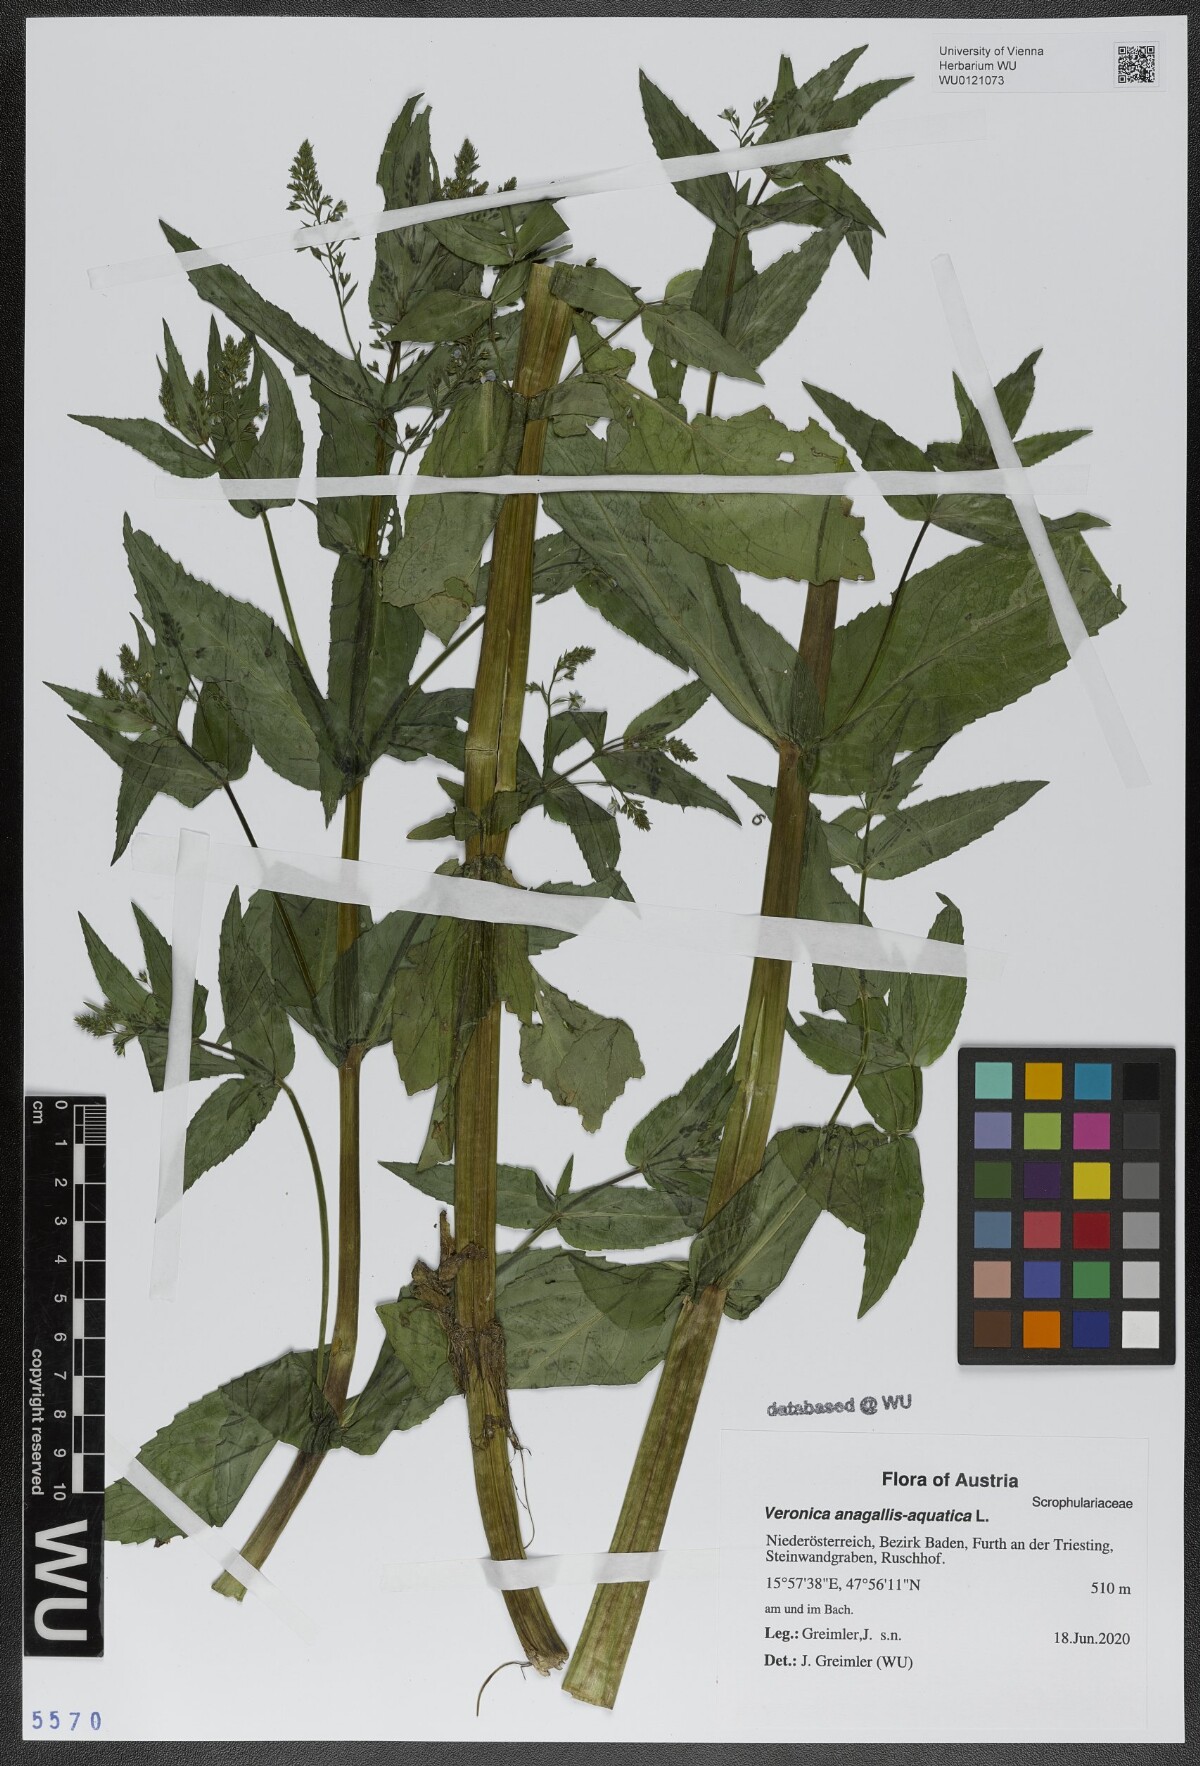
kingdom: Plantae
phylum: Tracheophyta
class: Magnoliopsida
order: Lamiales
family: Plantaginaceae
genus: Veronica
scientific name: Veronica anagallis-aquatica
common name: Water speedwell
